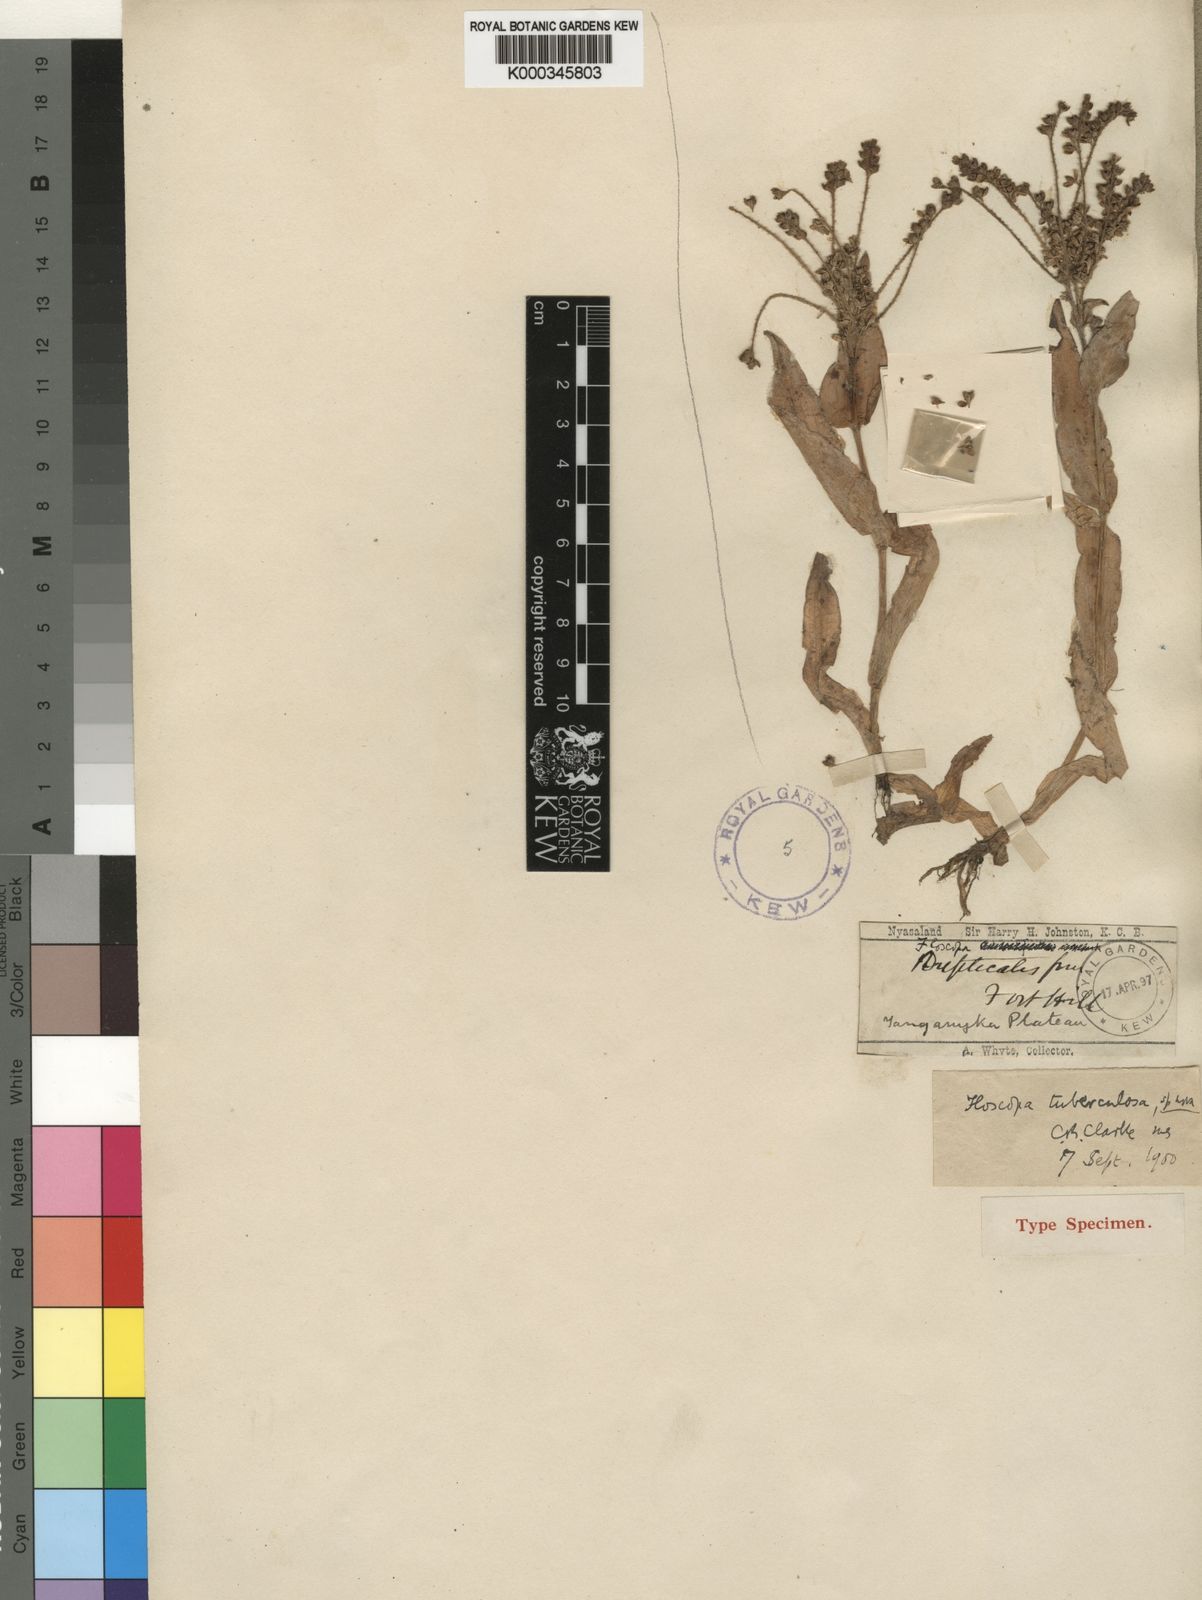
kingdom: Plantae
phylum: Tracheophyta
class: Liliopsida
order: Commelinales
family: Commelinaceae
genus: Floscopa
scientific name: Floscopa tuberculata
